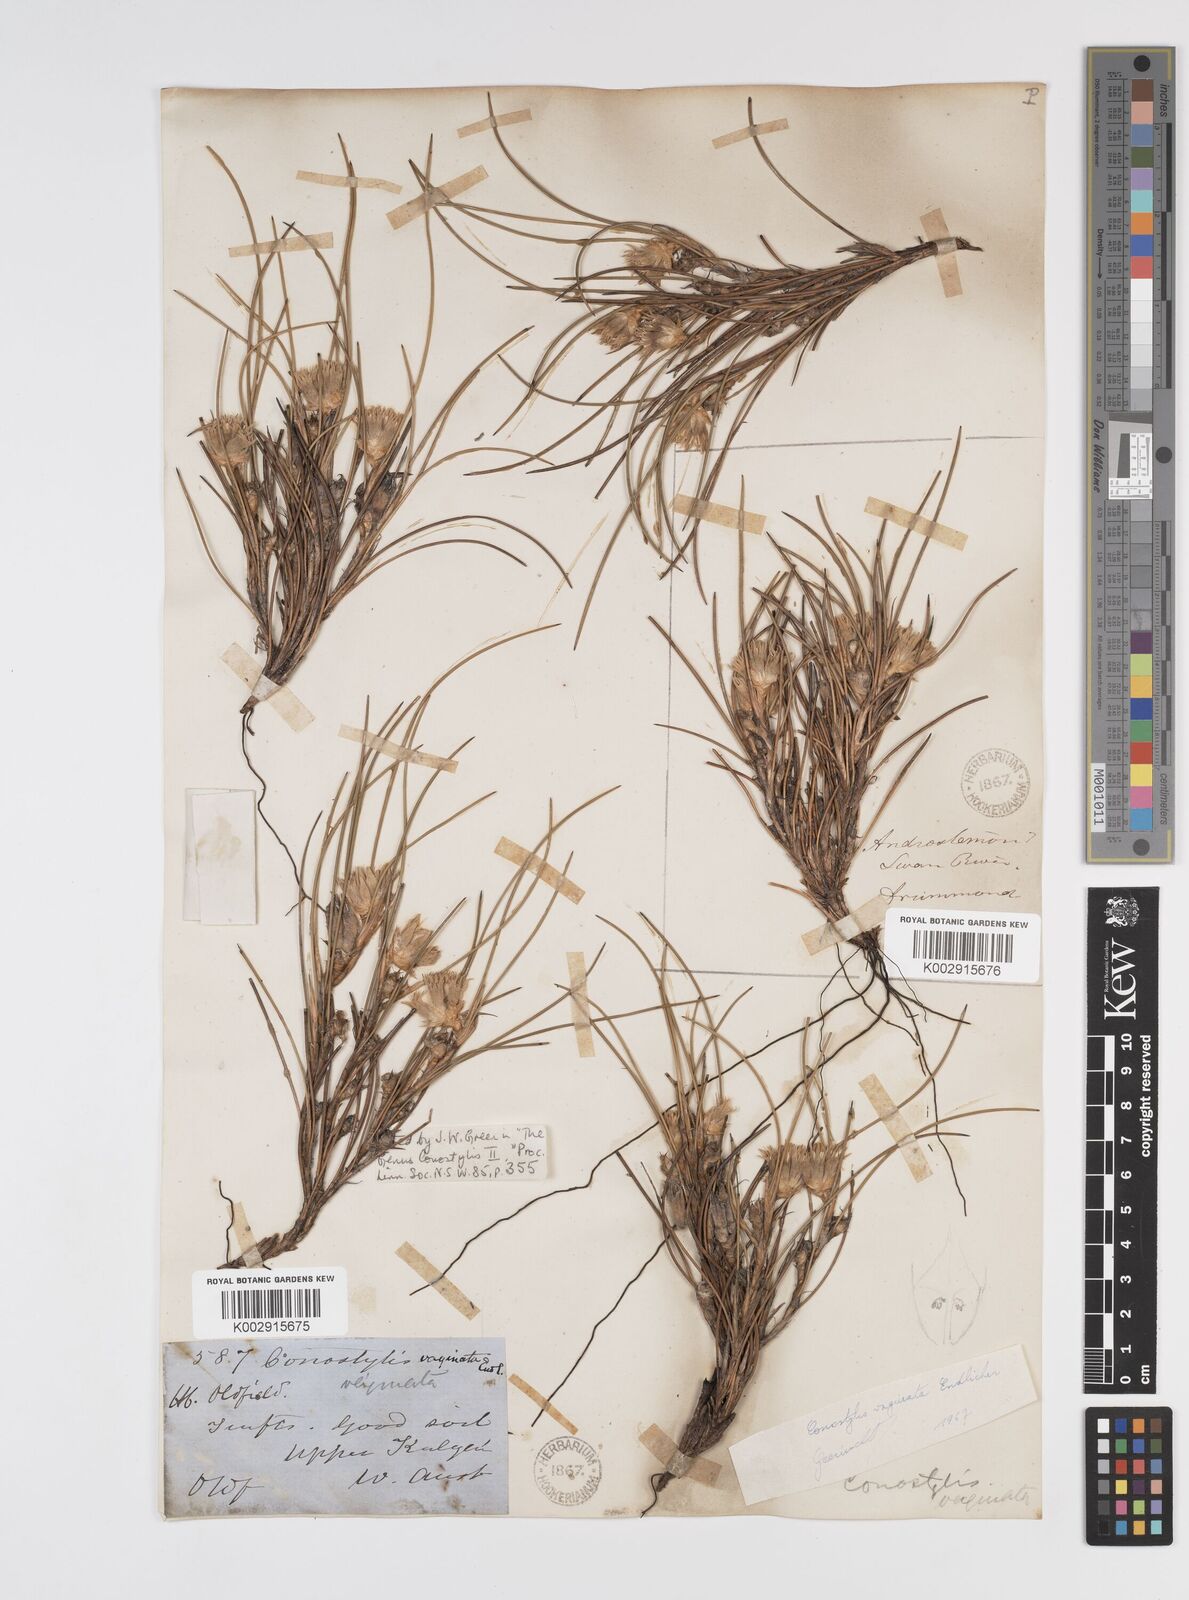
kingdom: Plantae
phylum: Tracheophyta
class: Liliopsida
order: Commelinales
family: Haemodoraceae
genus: Conostylis
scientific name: Conostylis vaginata
